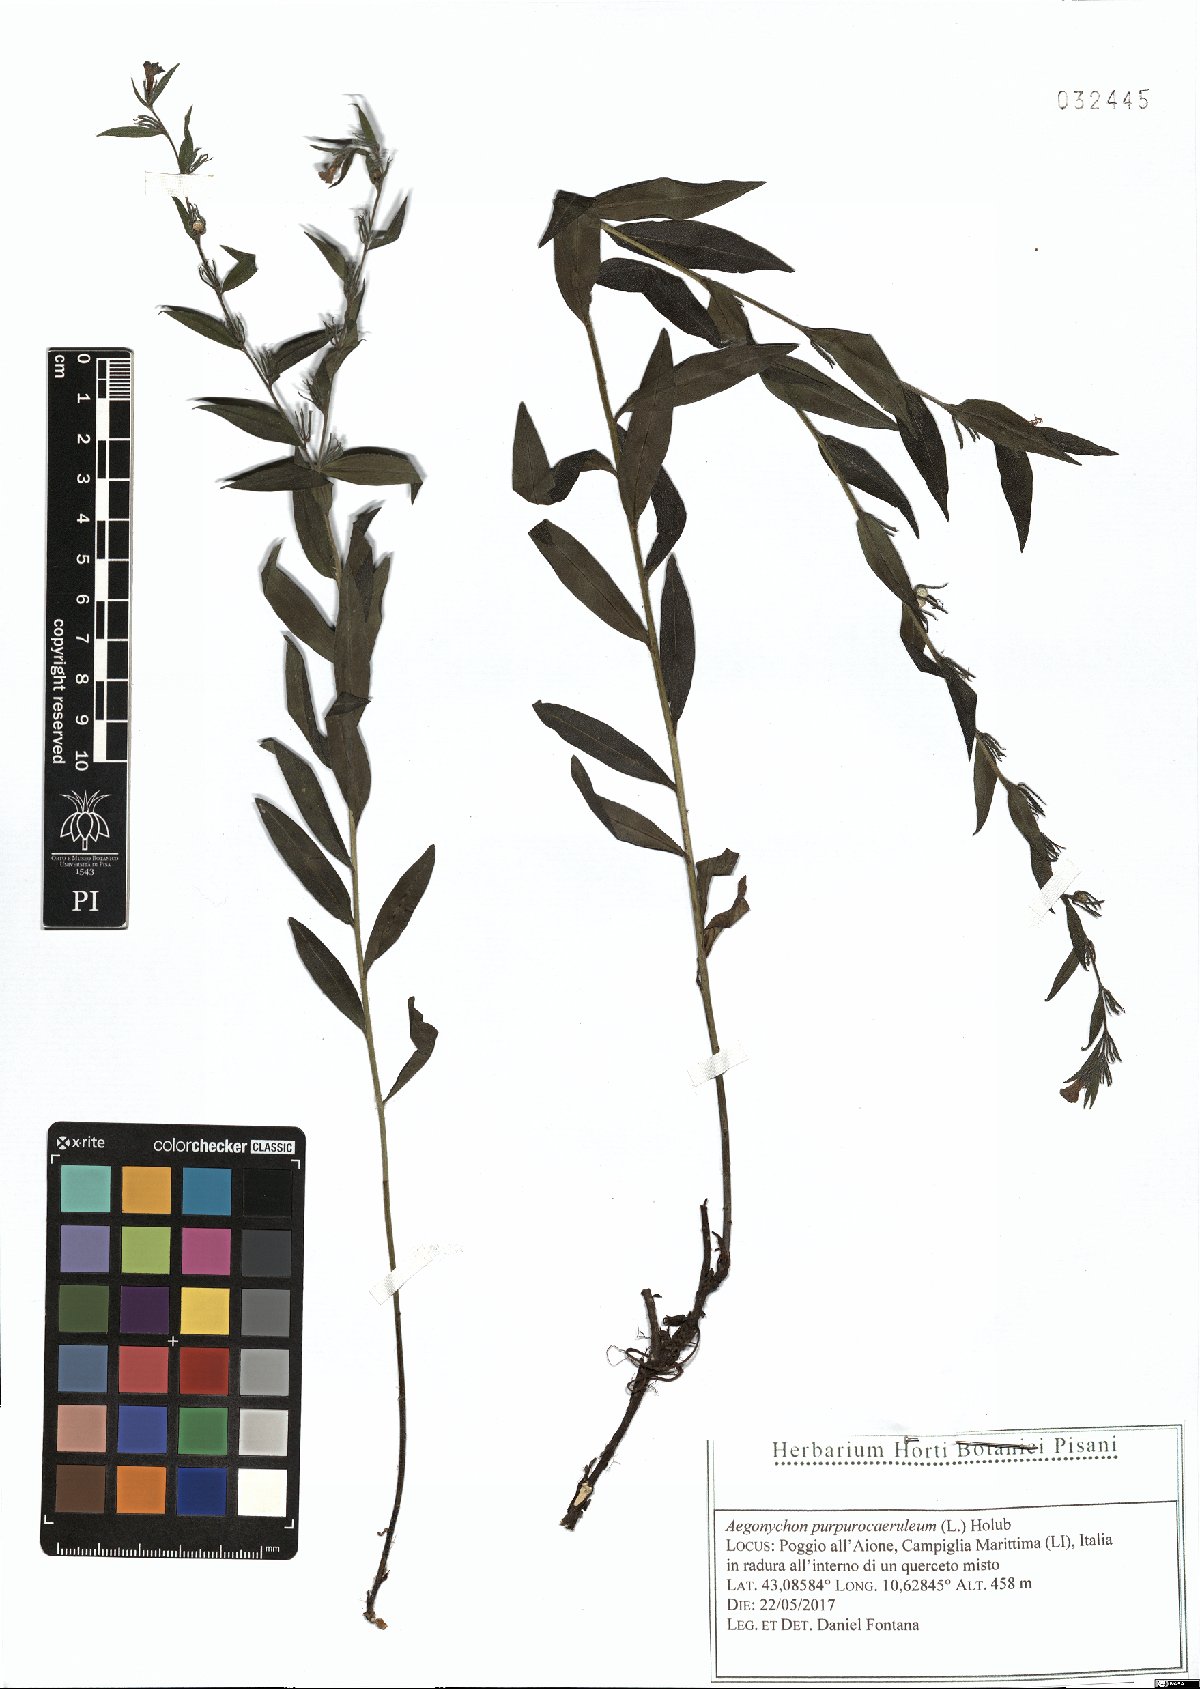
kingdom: Plantae
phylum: Tracheophyta
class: Magnoliopsida
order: Boraginales
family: Boraginaceae
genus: Aegonychon
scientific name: Aegonychon purpurocaeruleum
